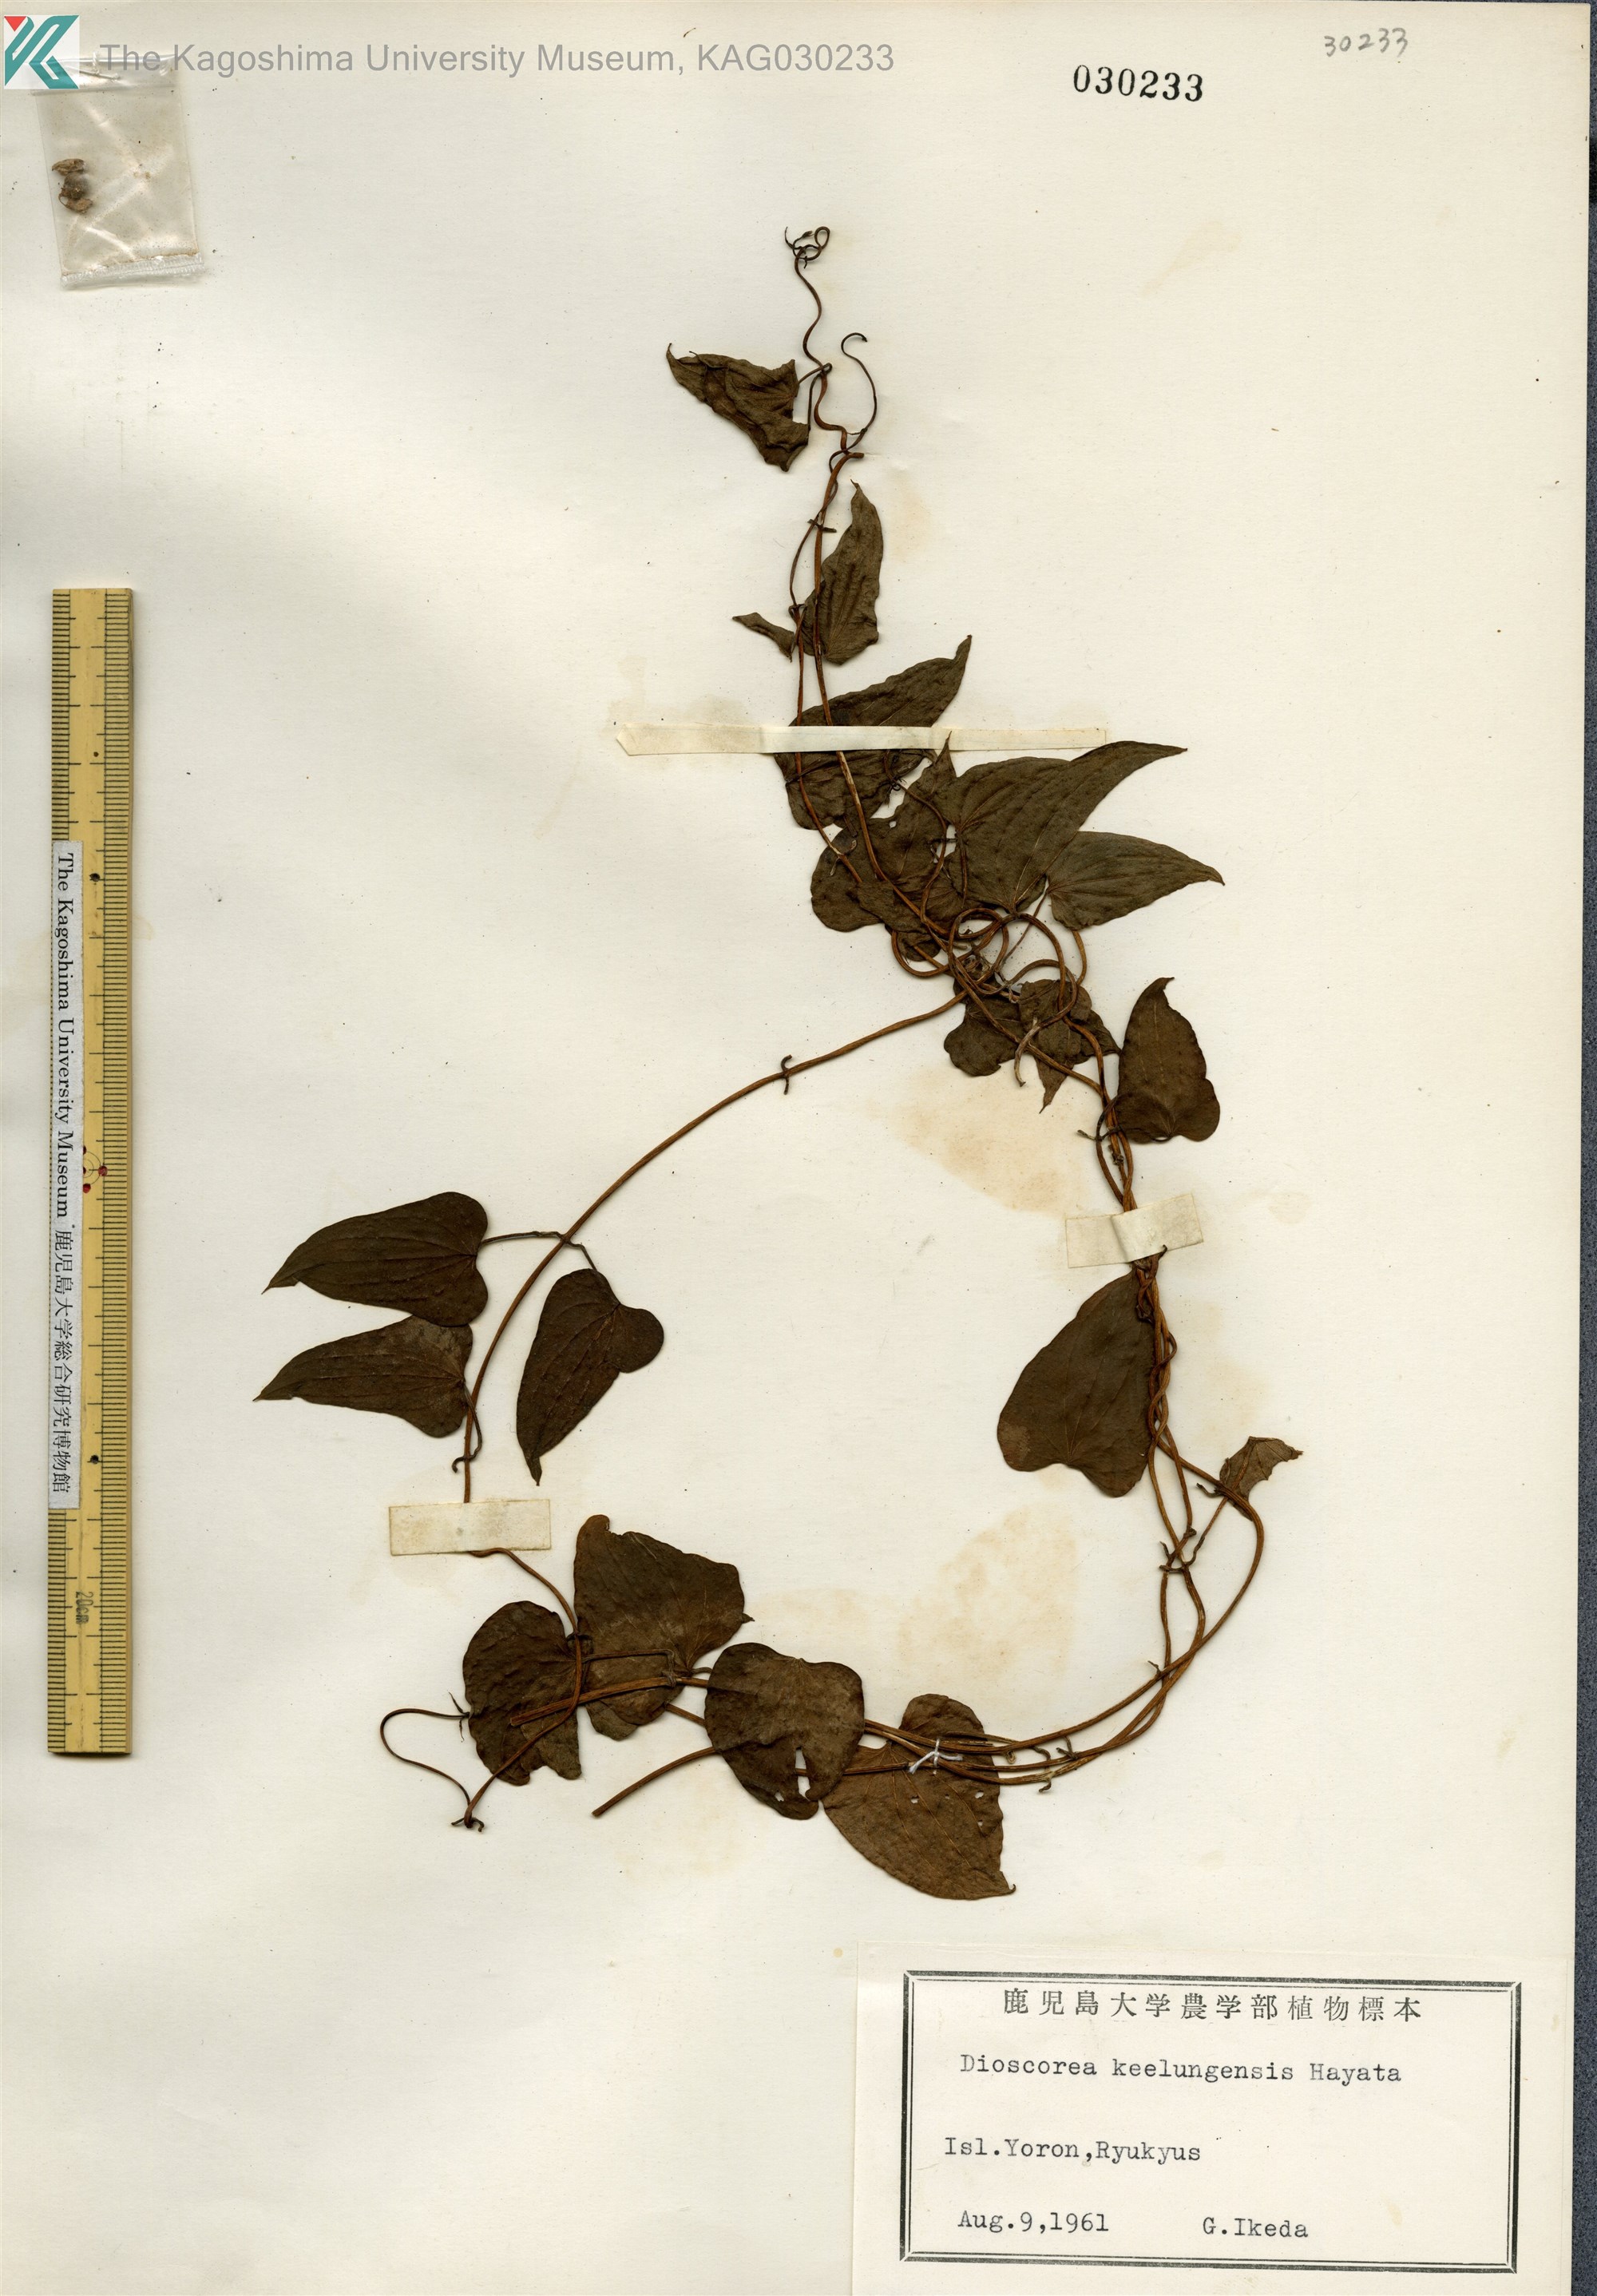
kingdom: Plantae
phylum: Tracheophyta
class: Liliopsida
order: Dioscoreales
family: Dioscoreaceae
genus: Dioscorea
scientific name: Dioscorea japonica
